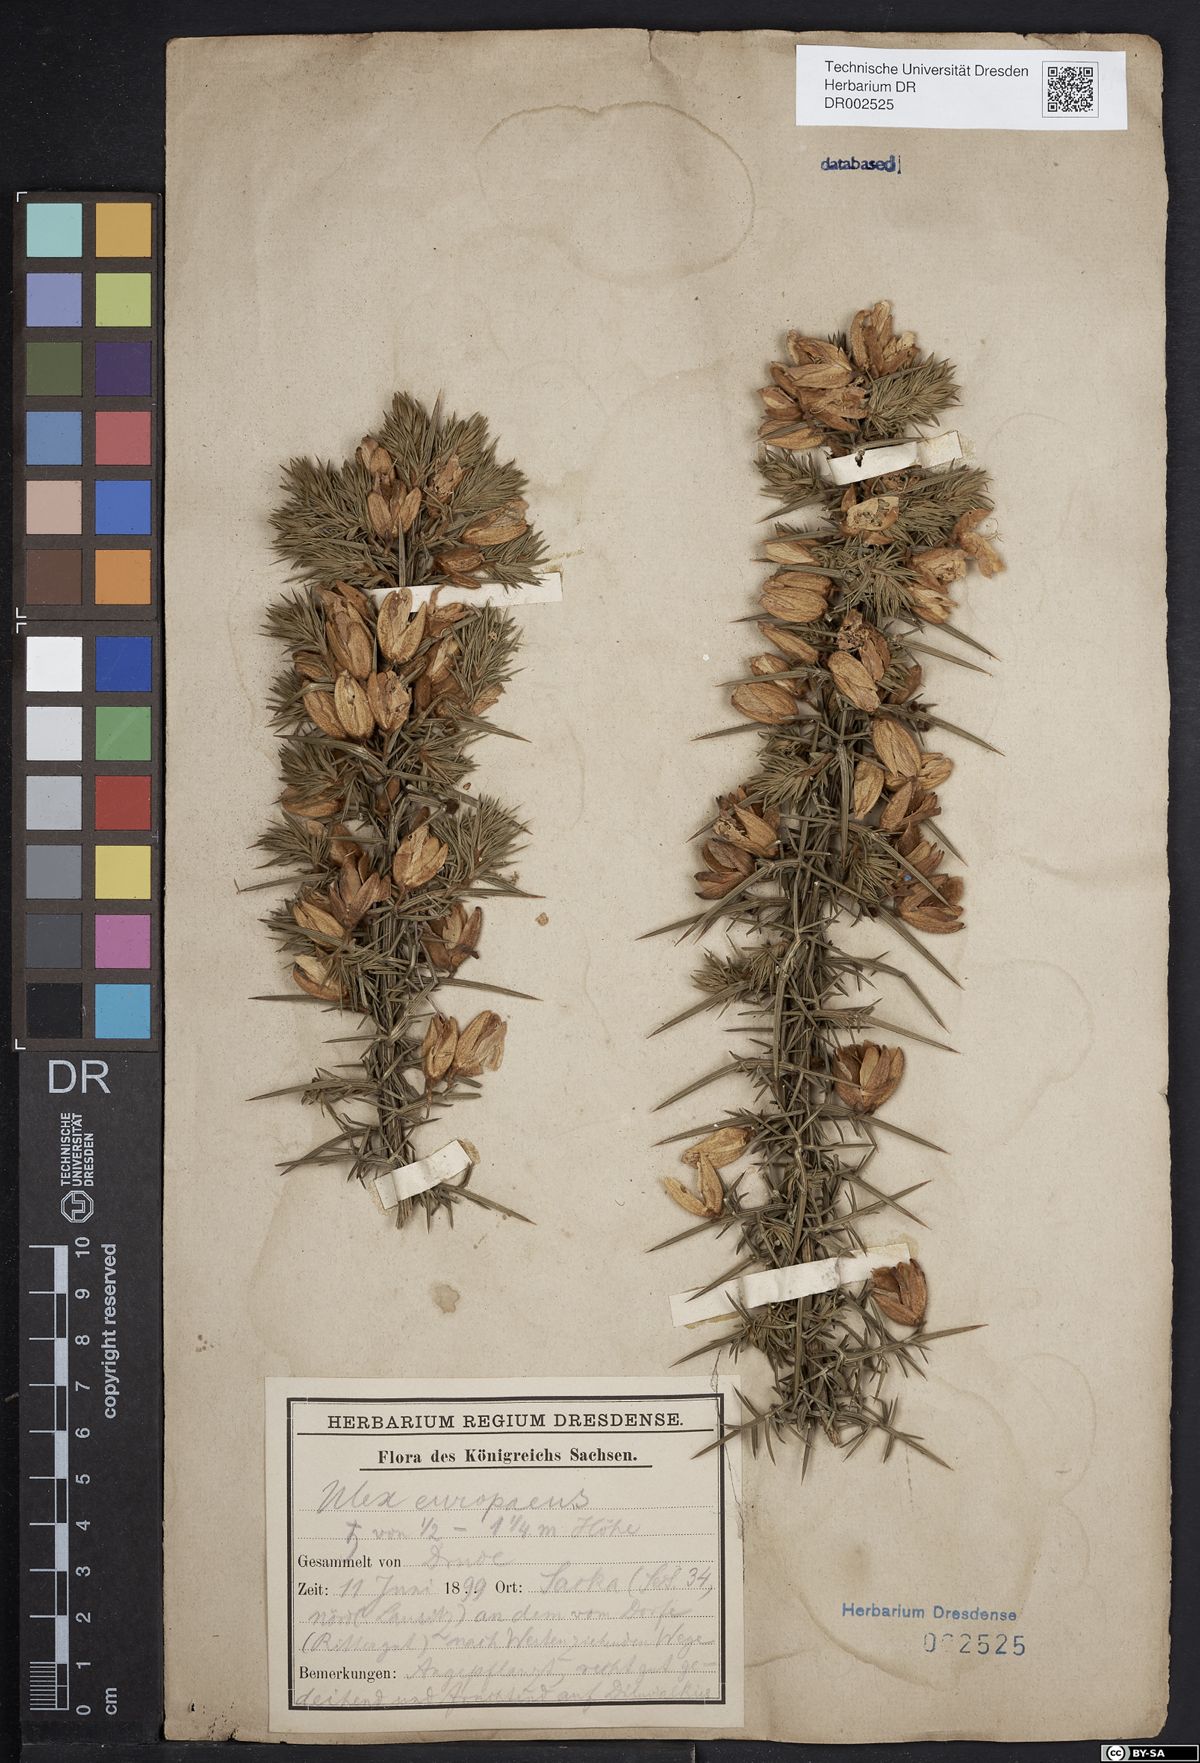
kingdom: Plantae
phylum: Tracheophyta
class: Magnoliopsida
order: Fabales
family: Fabaceae
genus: Ulex
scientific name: Ulex europaeus
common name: Common gorse
